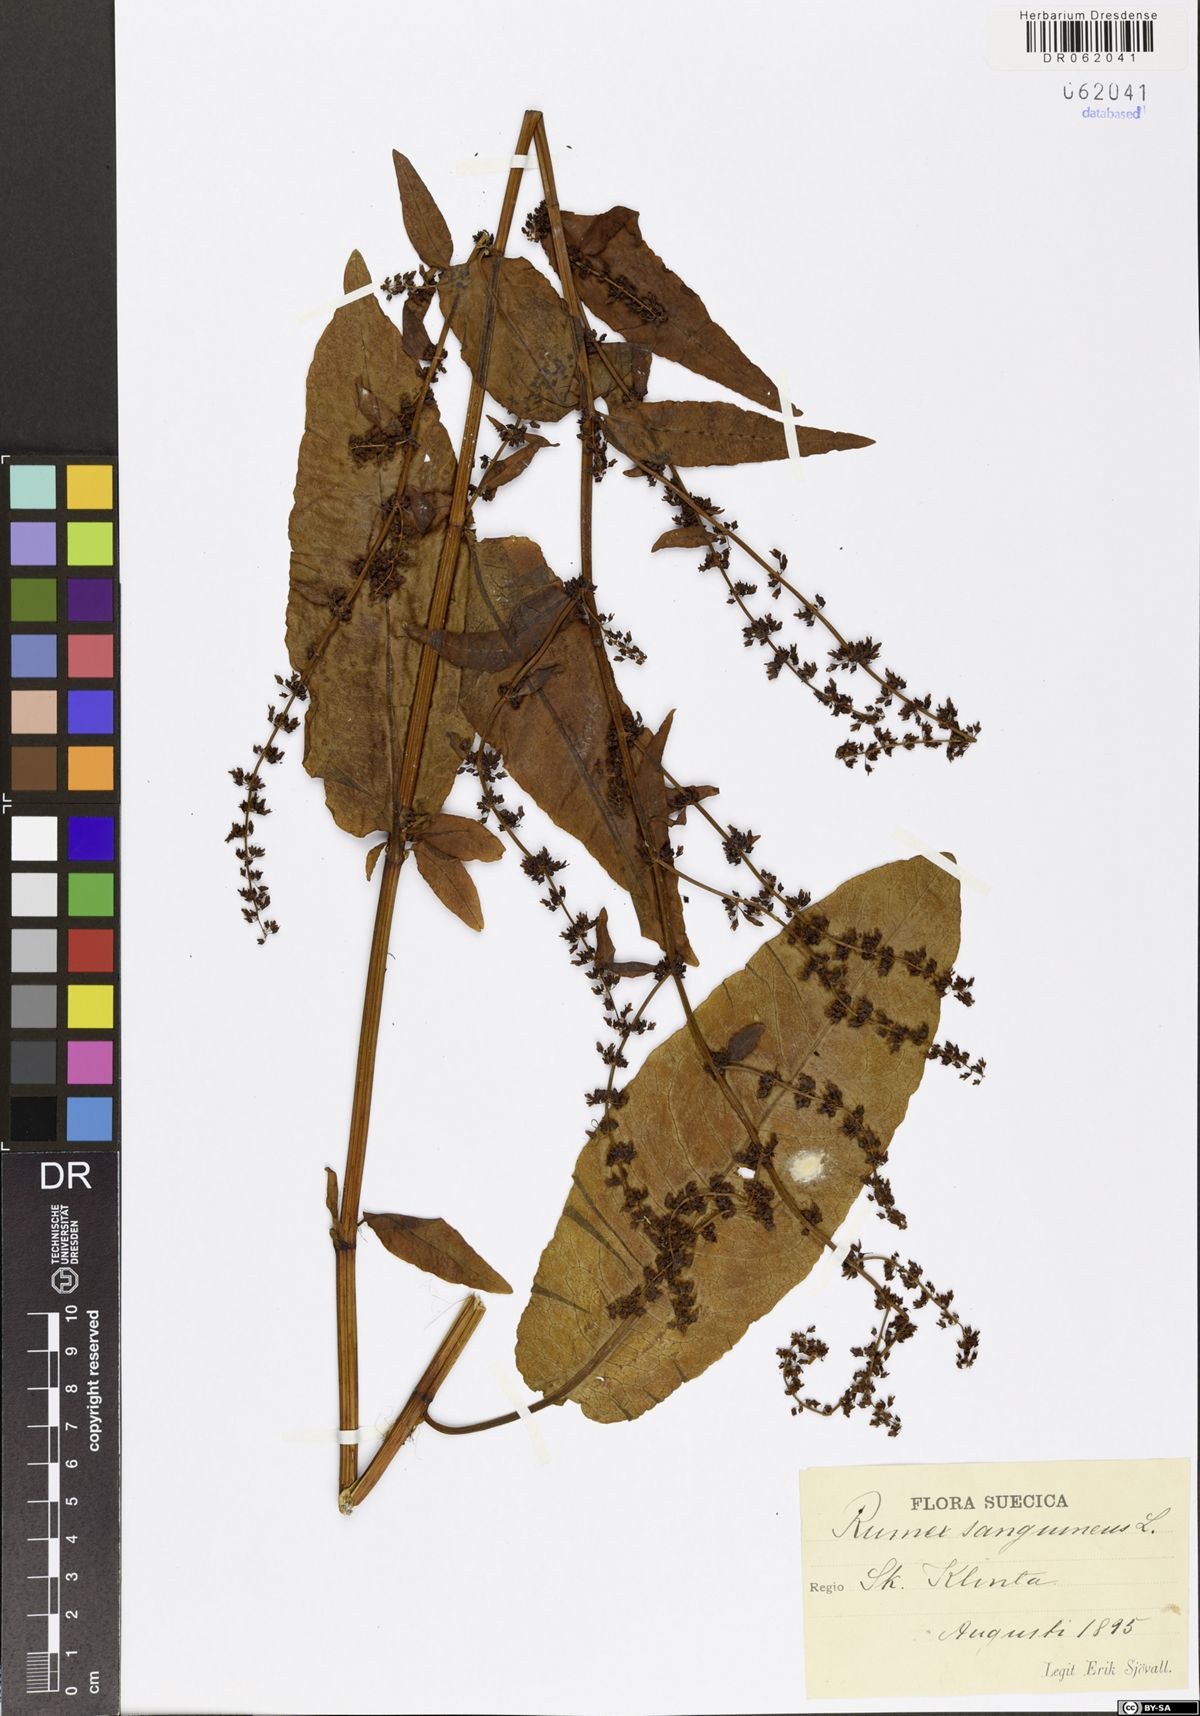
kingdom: Plantae
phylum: Tracheophyta
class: Magnoliopsida
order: Caryophyllales
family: Polygonaceae
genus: Rumex
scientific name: Rumex sanguineus
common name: Wood dock
